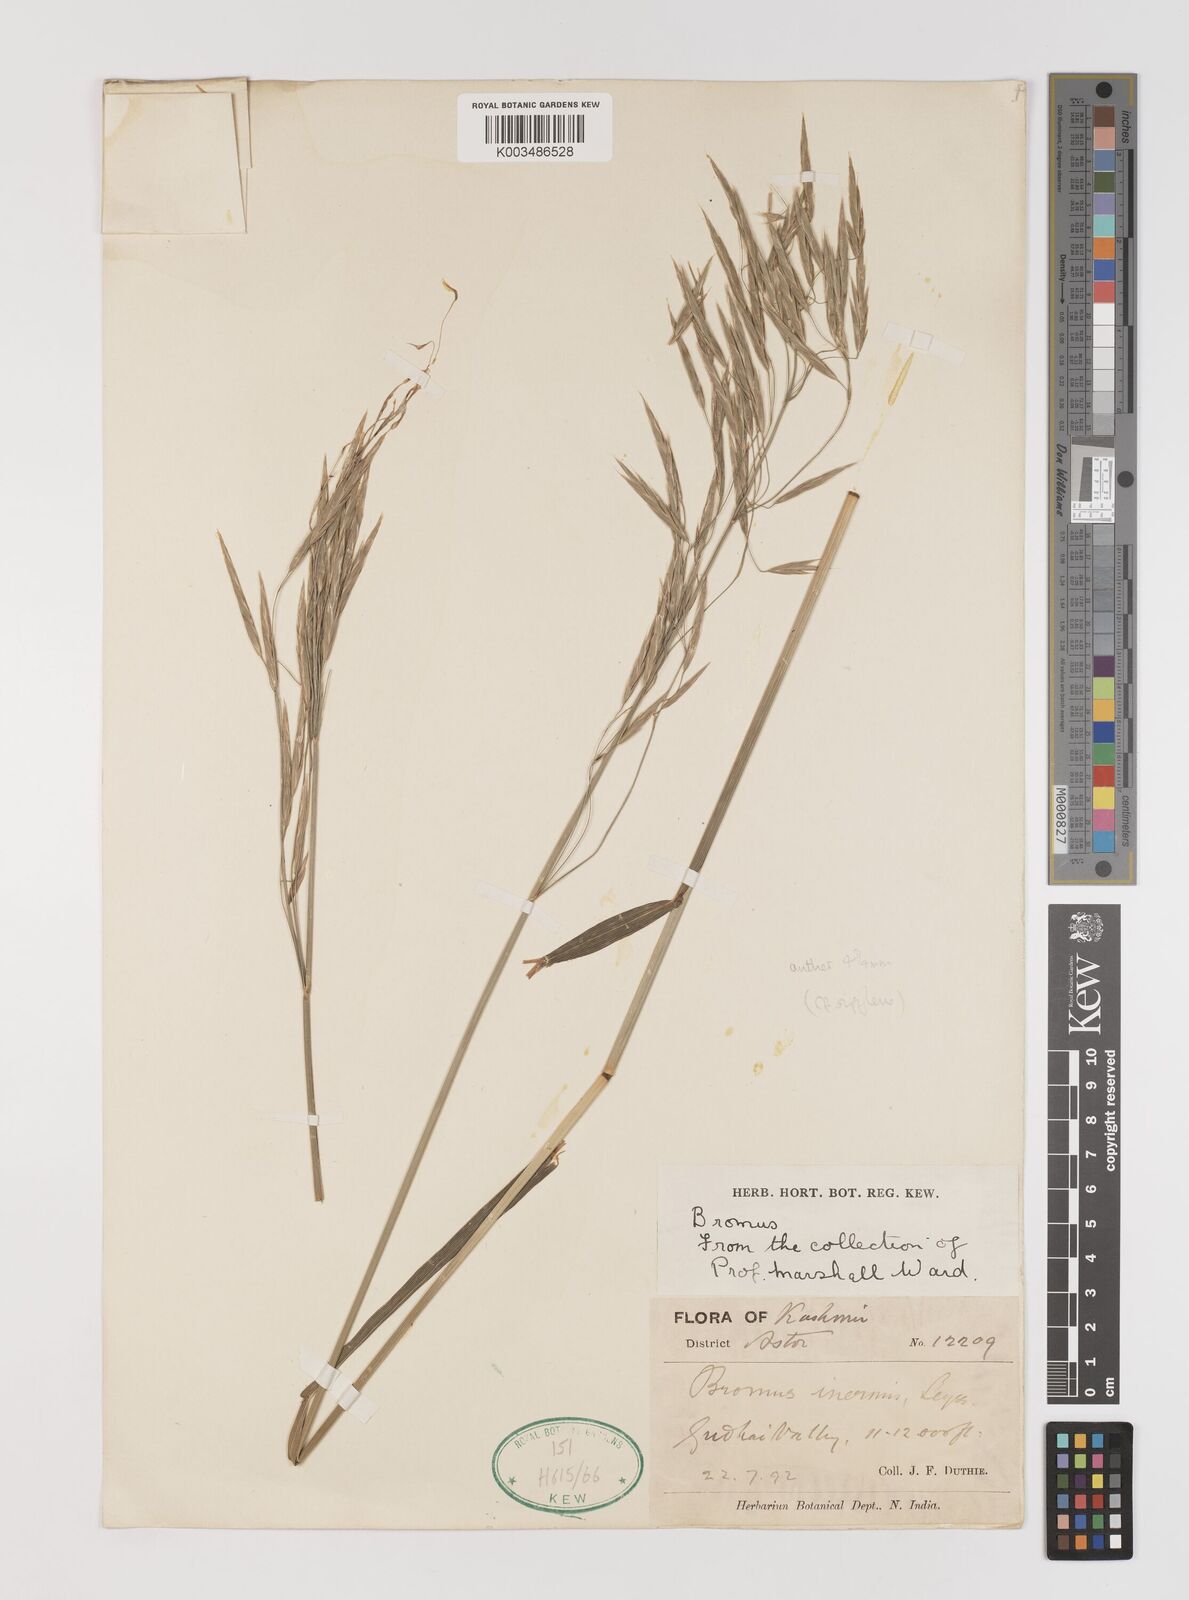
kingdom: Plantae
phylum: Tracheophyta
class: Liliopsida
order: Poales
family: Poaceae
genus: Bromus
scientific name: Bromus inermis
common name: Smooth brome
